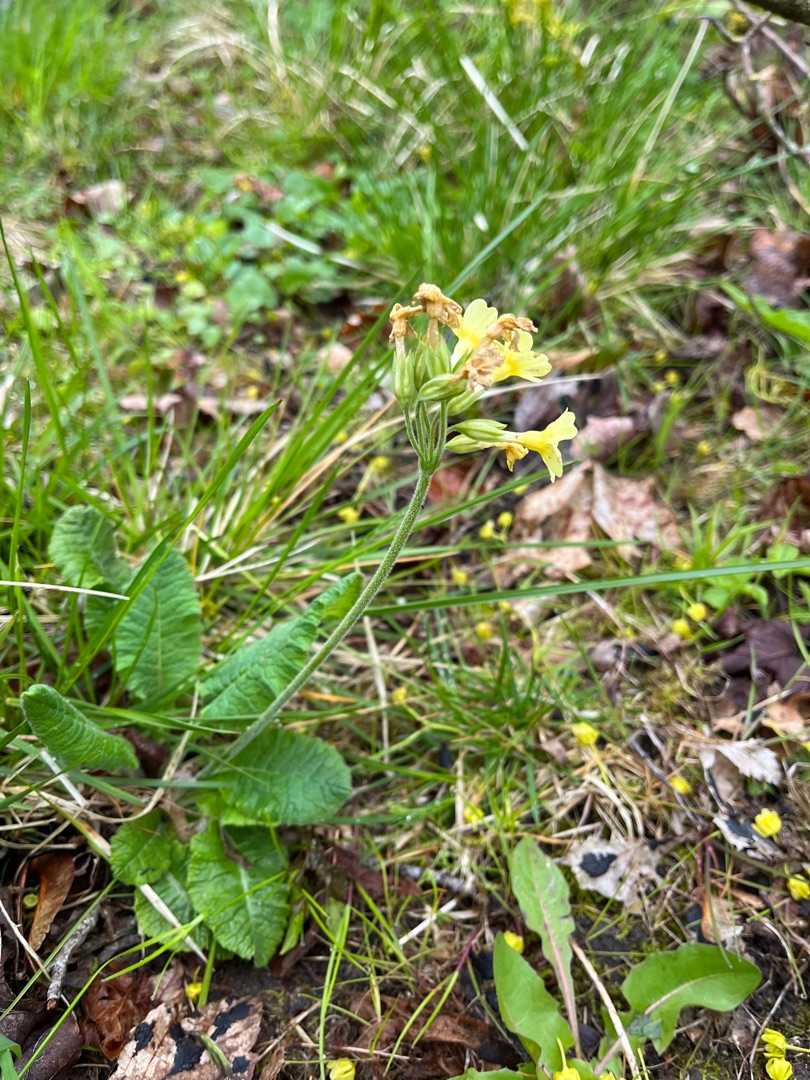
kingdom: Plantae
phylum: Tracheophyta
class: Magnoliopsida
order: Ericales
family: Primulaceae
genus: Primula
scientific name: Primula elatior
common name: Fladkravet kodriver
